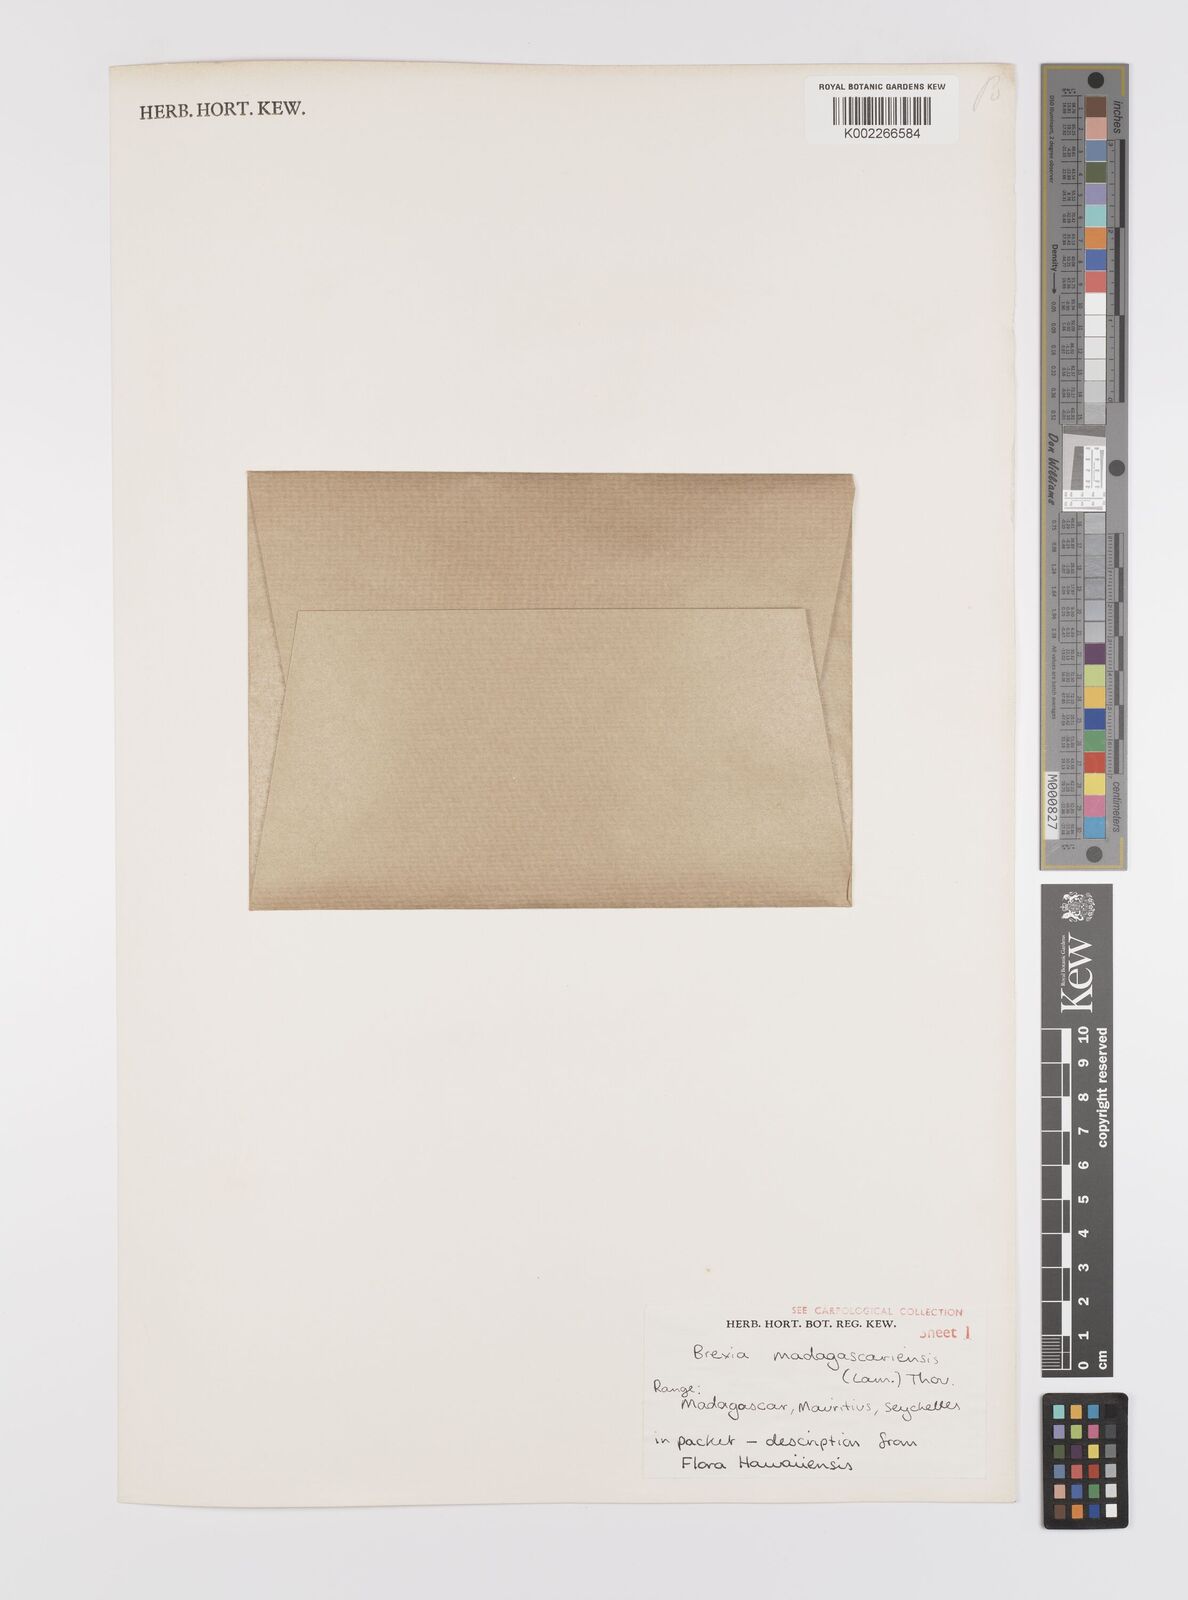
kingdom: Plantae
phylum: Tracheophyta
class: Magnoliopsida
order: Celastrales
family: Celastraceae
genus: Brexia
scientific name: Brexia madagascariensis
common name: Brexia
